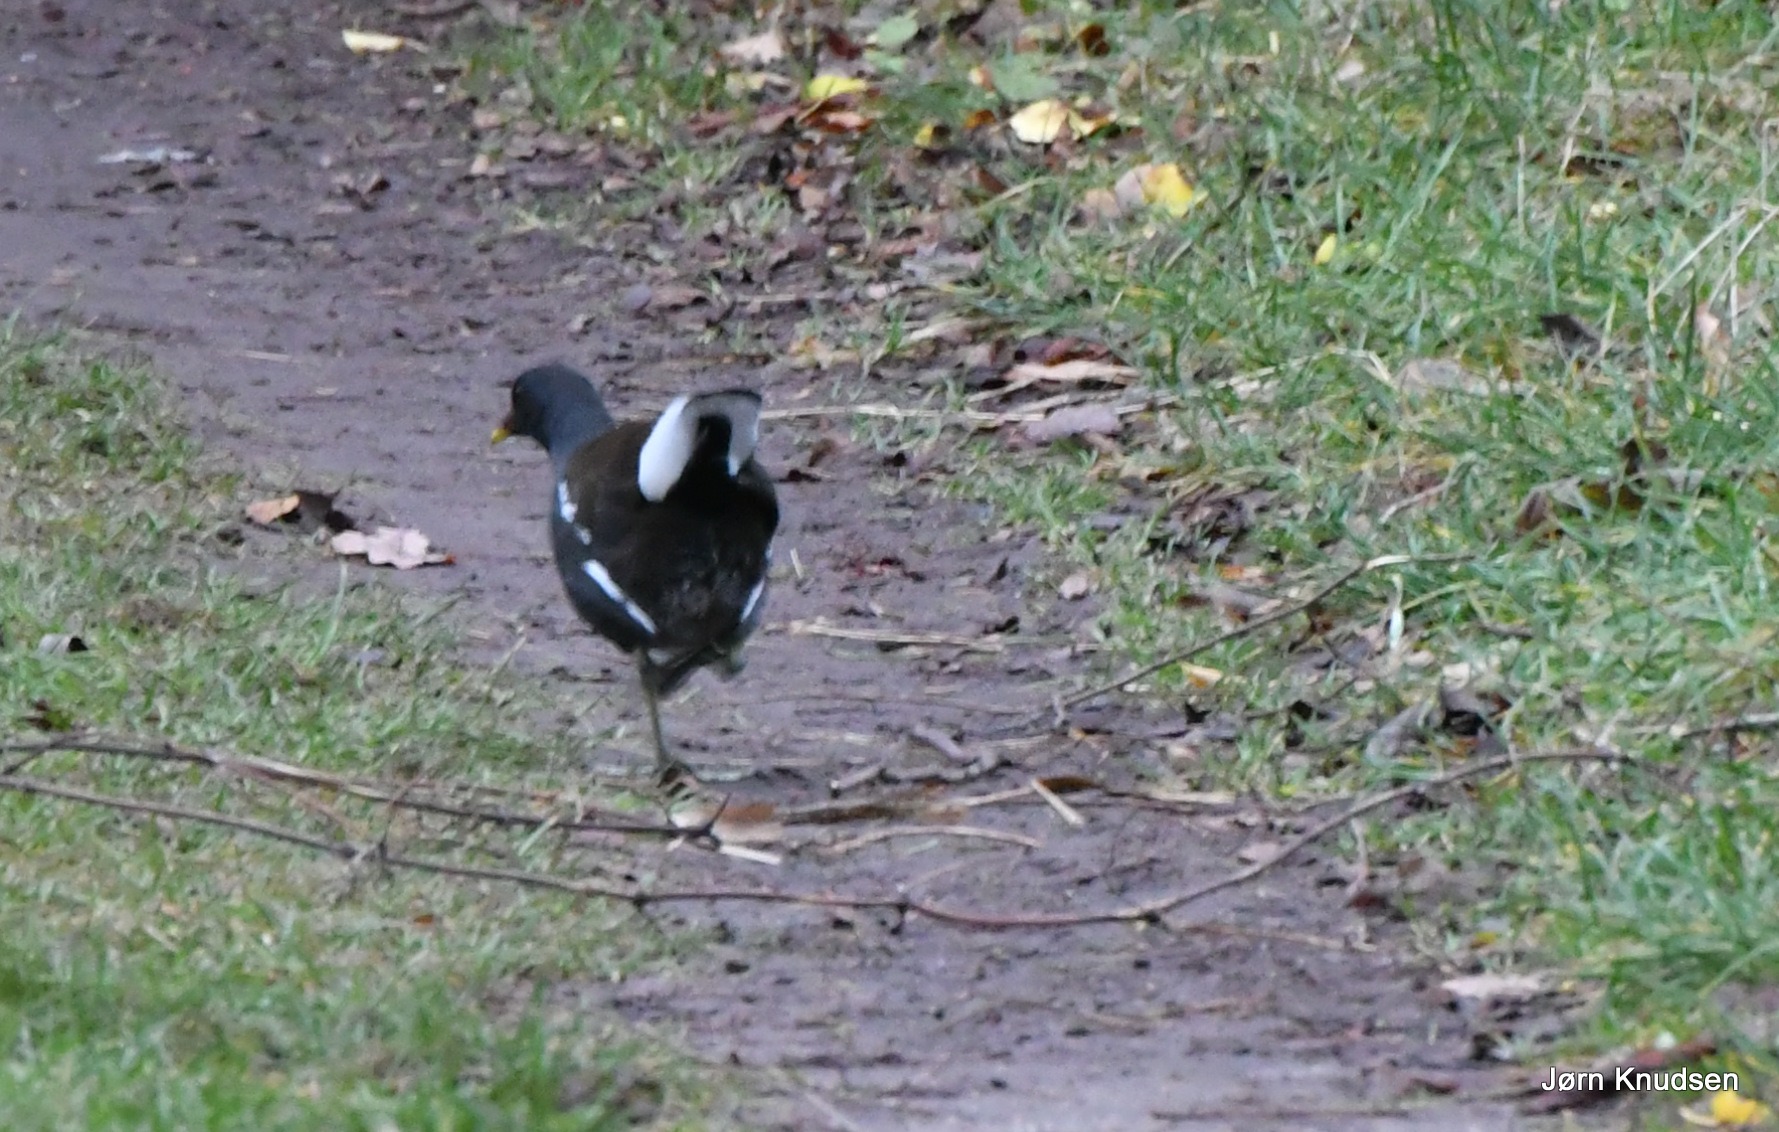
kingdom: Animalia
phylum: Chordata
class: Aves
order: Gruiformes
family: Rallidae
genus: Gallinula
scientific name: Gallinula chloropus
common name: Grønbenet rørhøne
